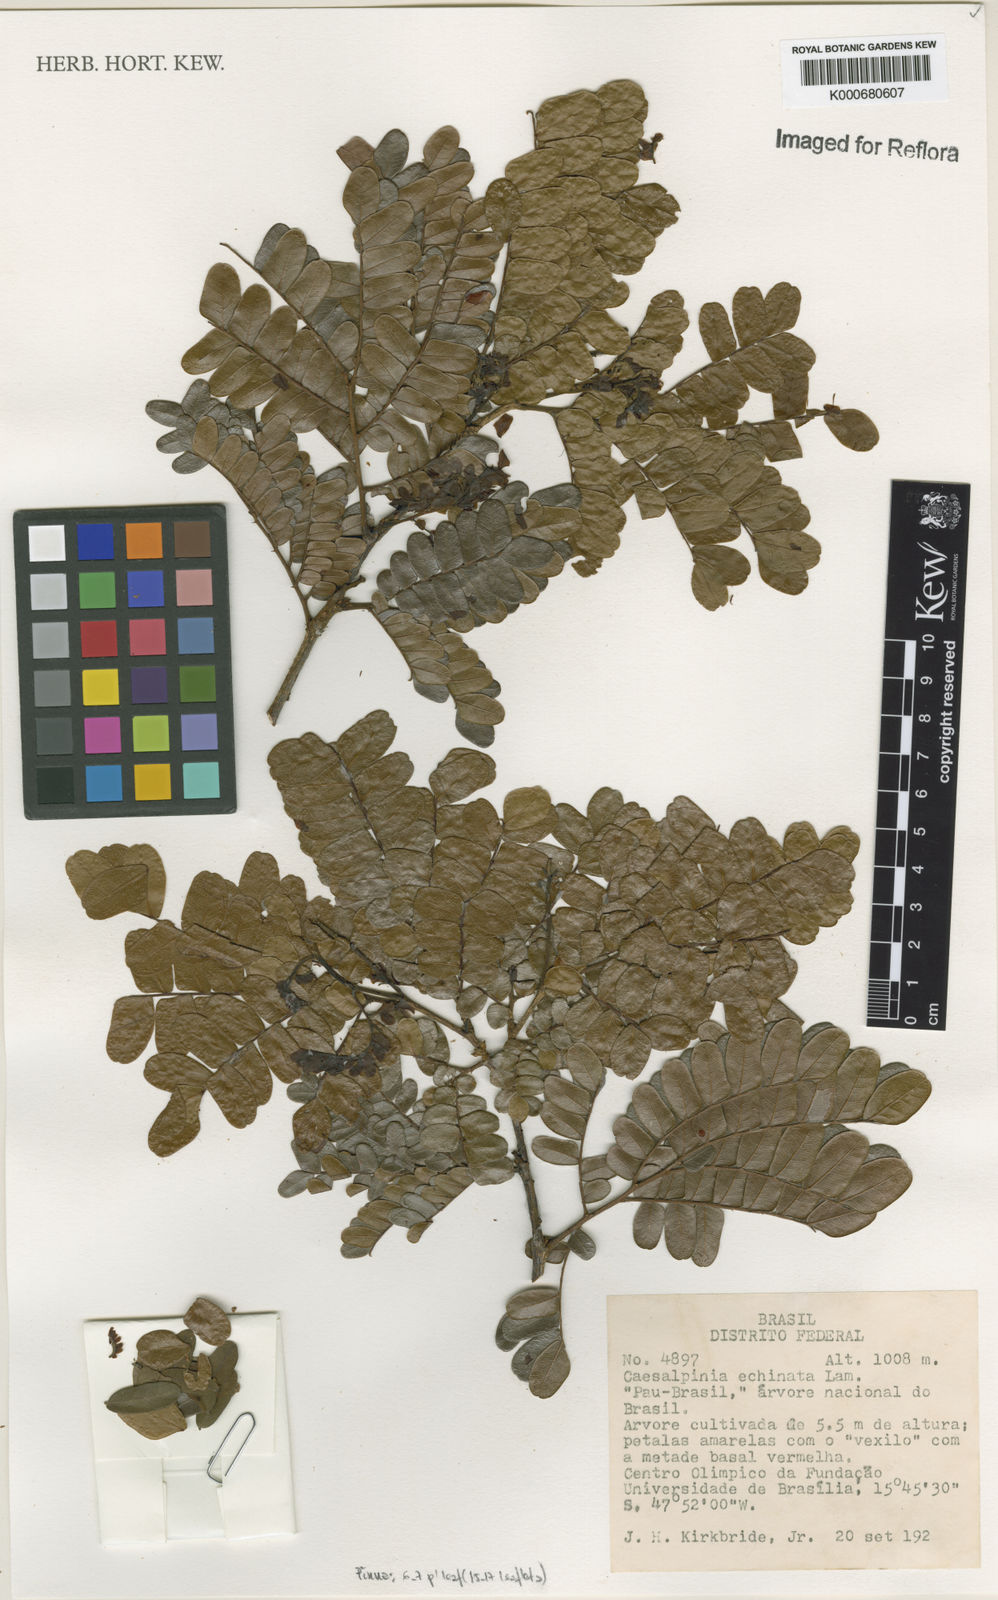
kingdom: Plantae
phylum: Tracheophyta
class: Magnoliopsida
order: Fabales
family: Fabaceae
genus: Paubrasilia
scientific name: Paubrasilia echinata
